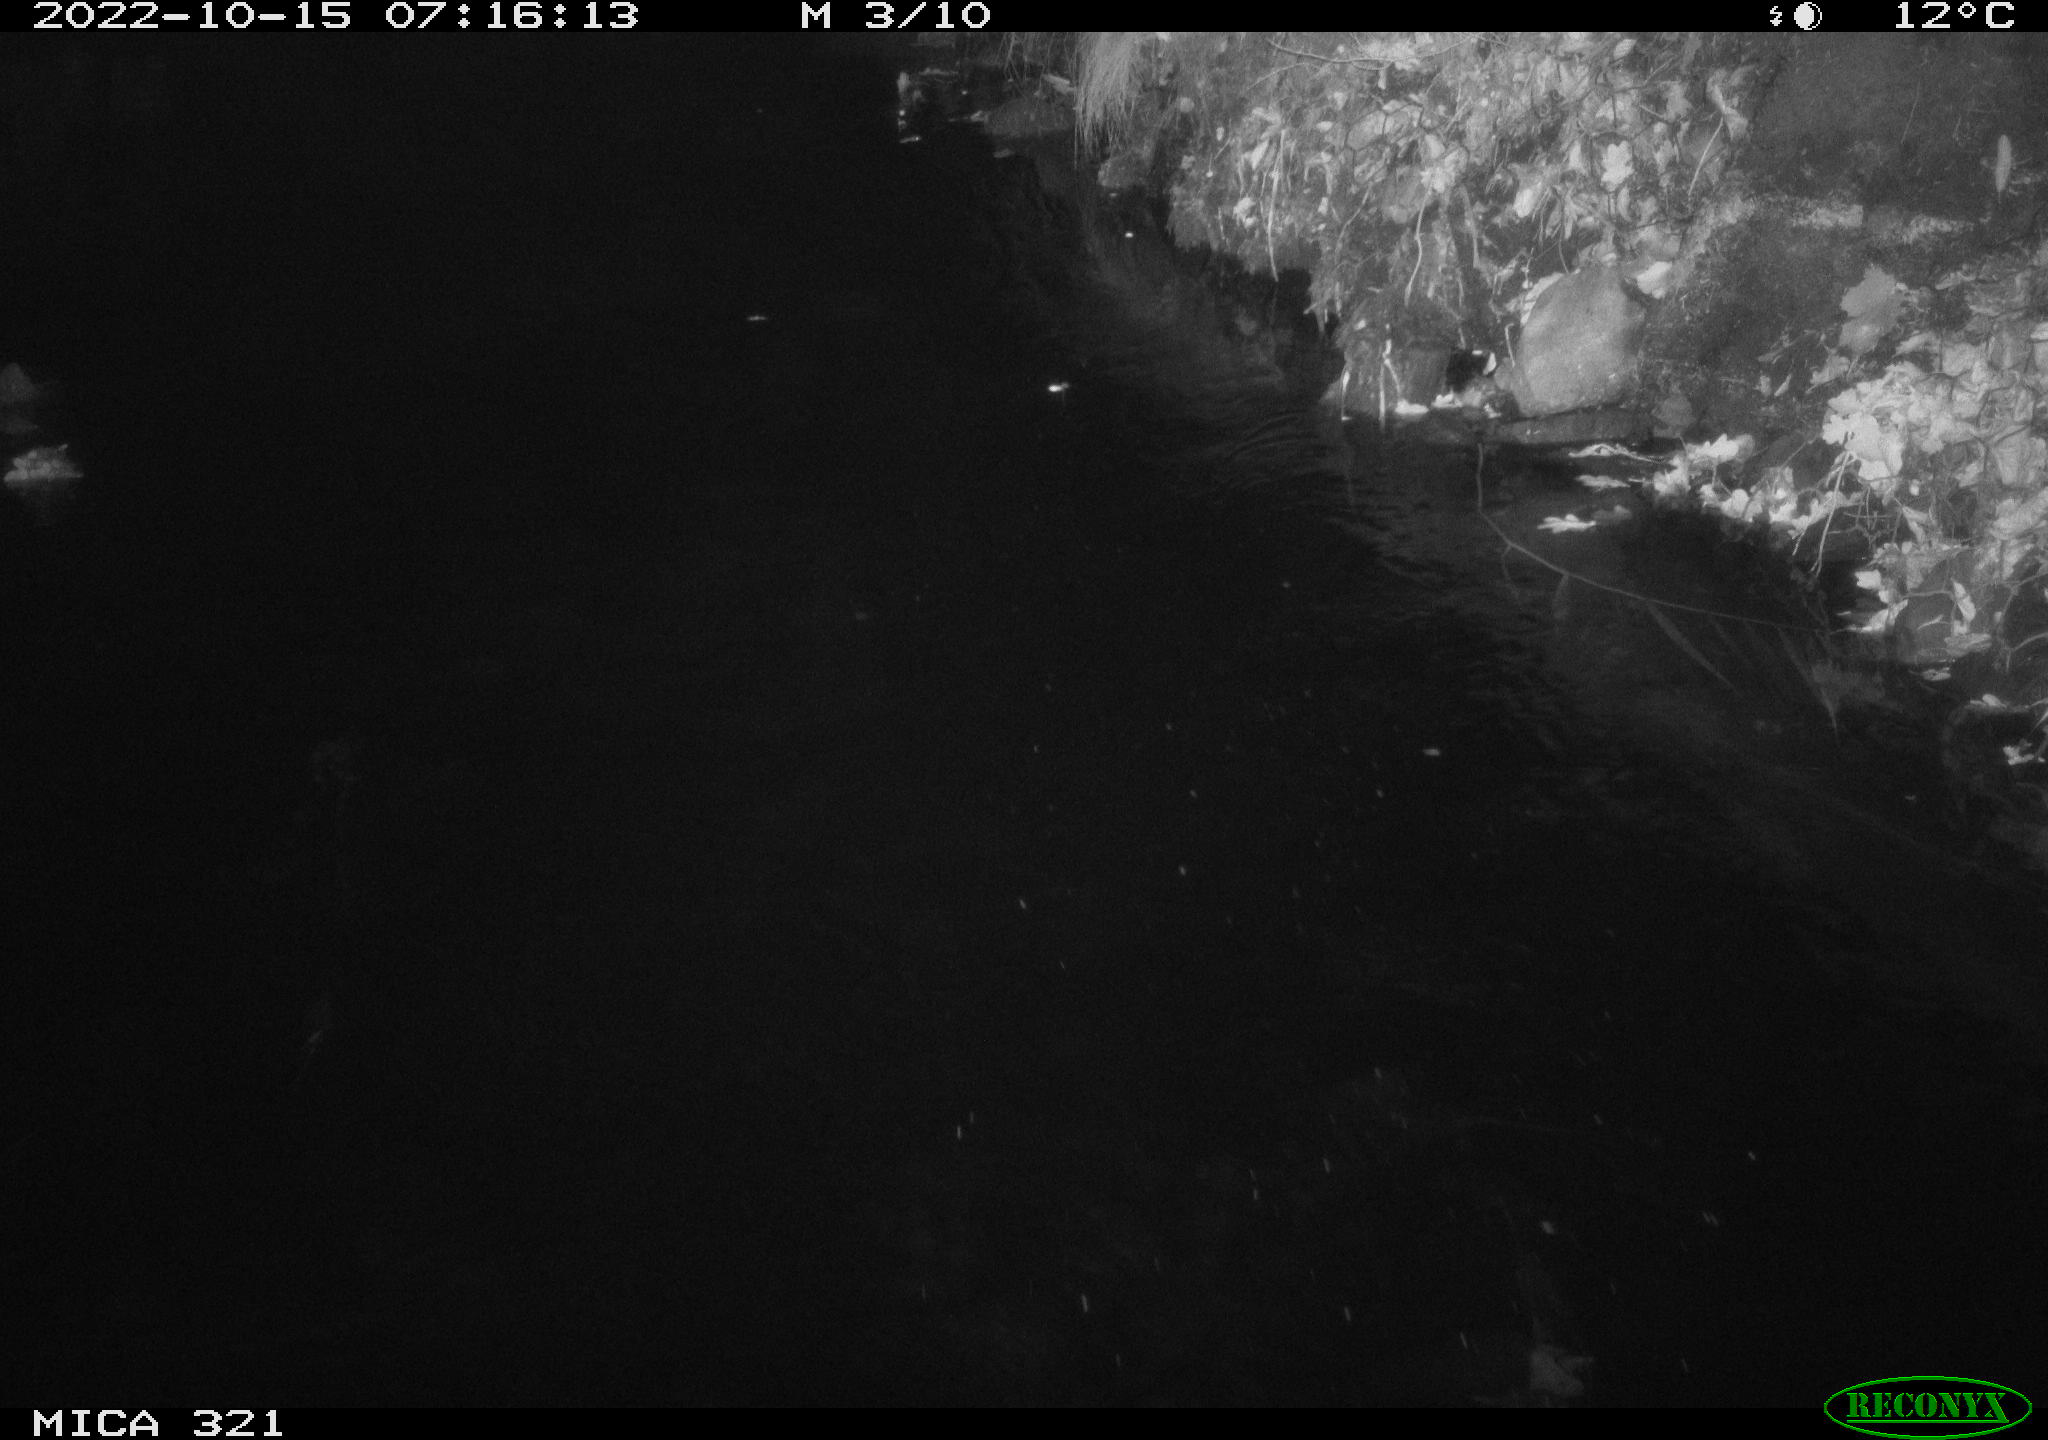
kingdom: Animalia
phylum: Chordata
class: Aves
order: Anseriformes
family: Anatidae
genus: Anas
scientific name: Anas
